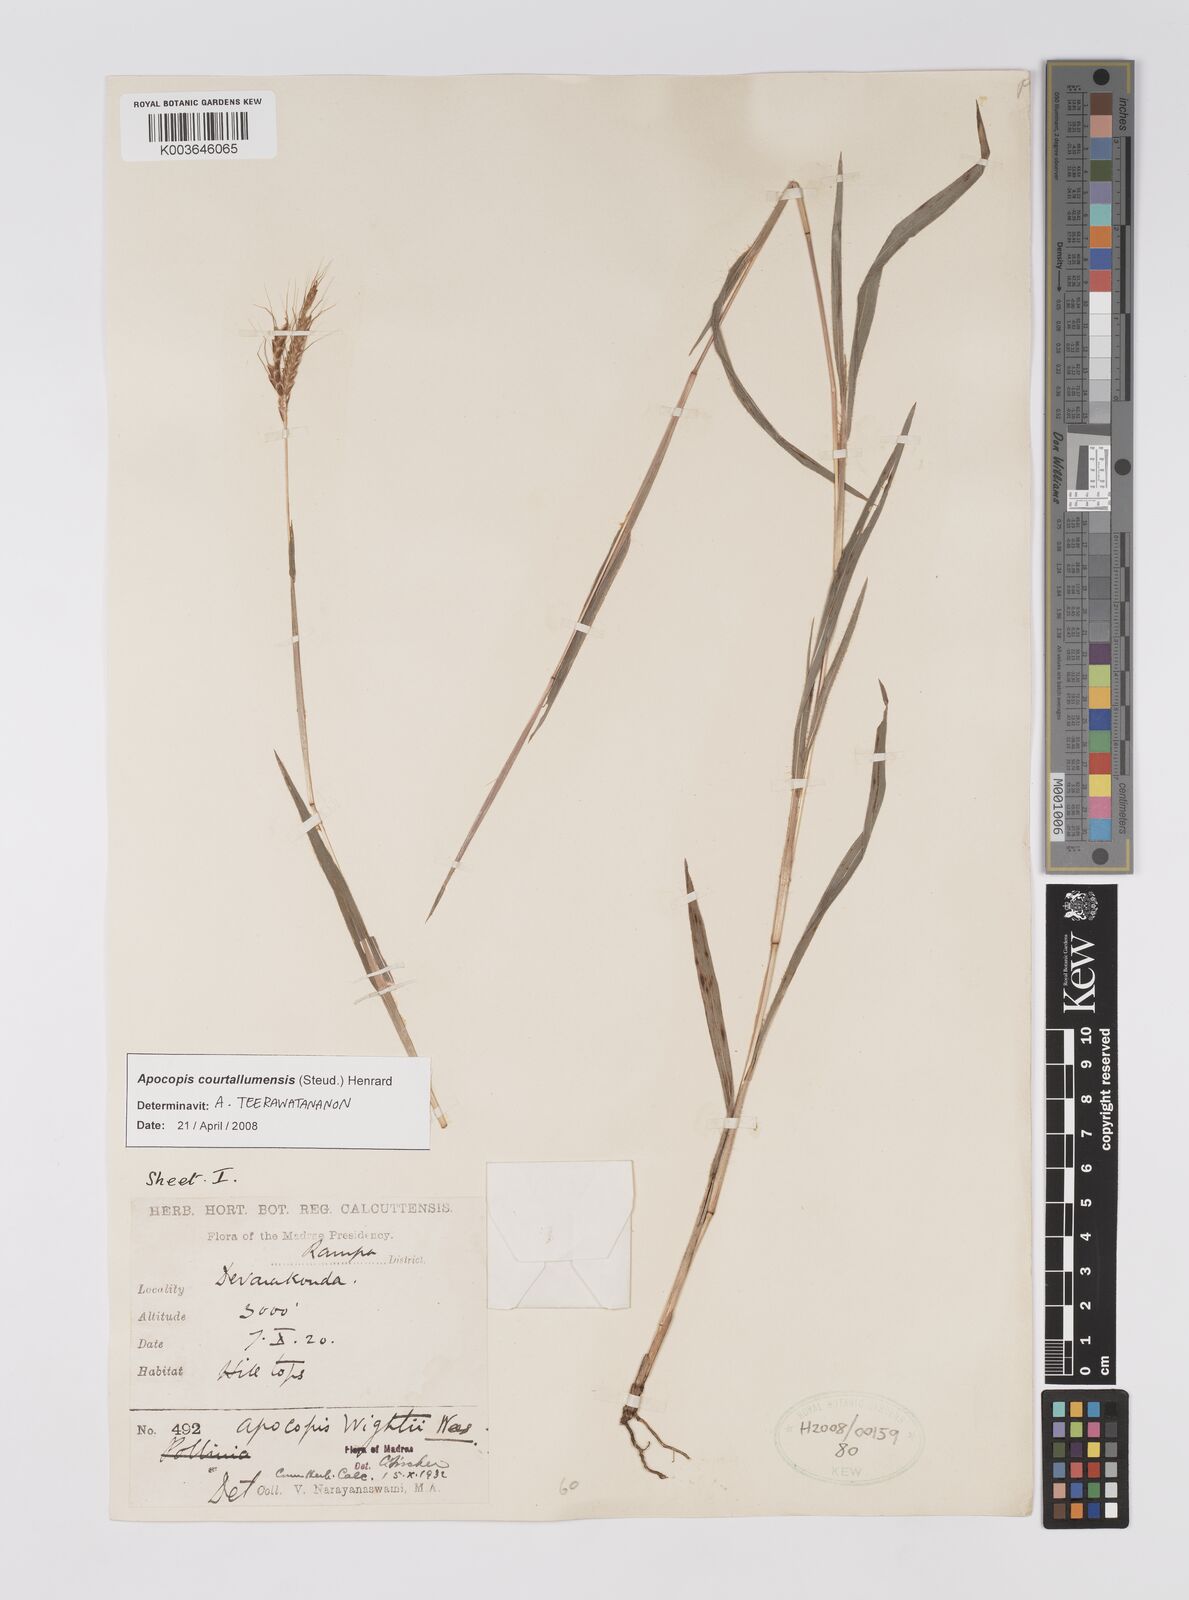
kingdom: Plantae
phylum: Tracheophyta
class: Liliopsida
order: Poales
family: Poaceae
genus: Apocopis
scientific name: Apocopis courtallumensis
